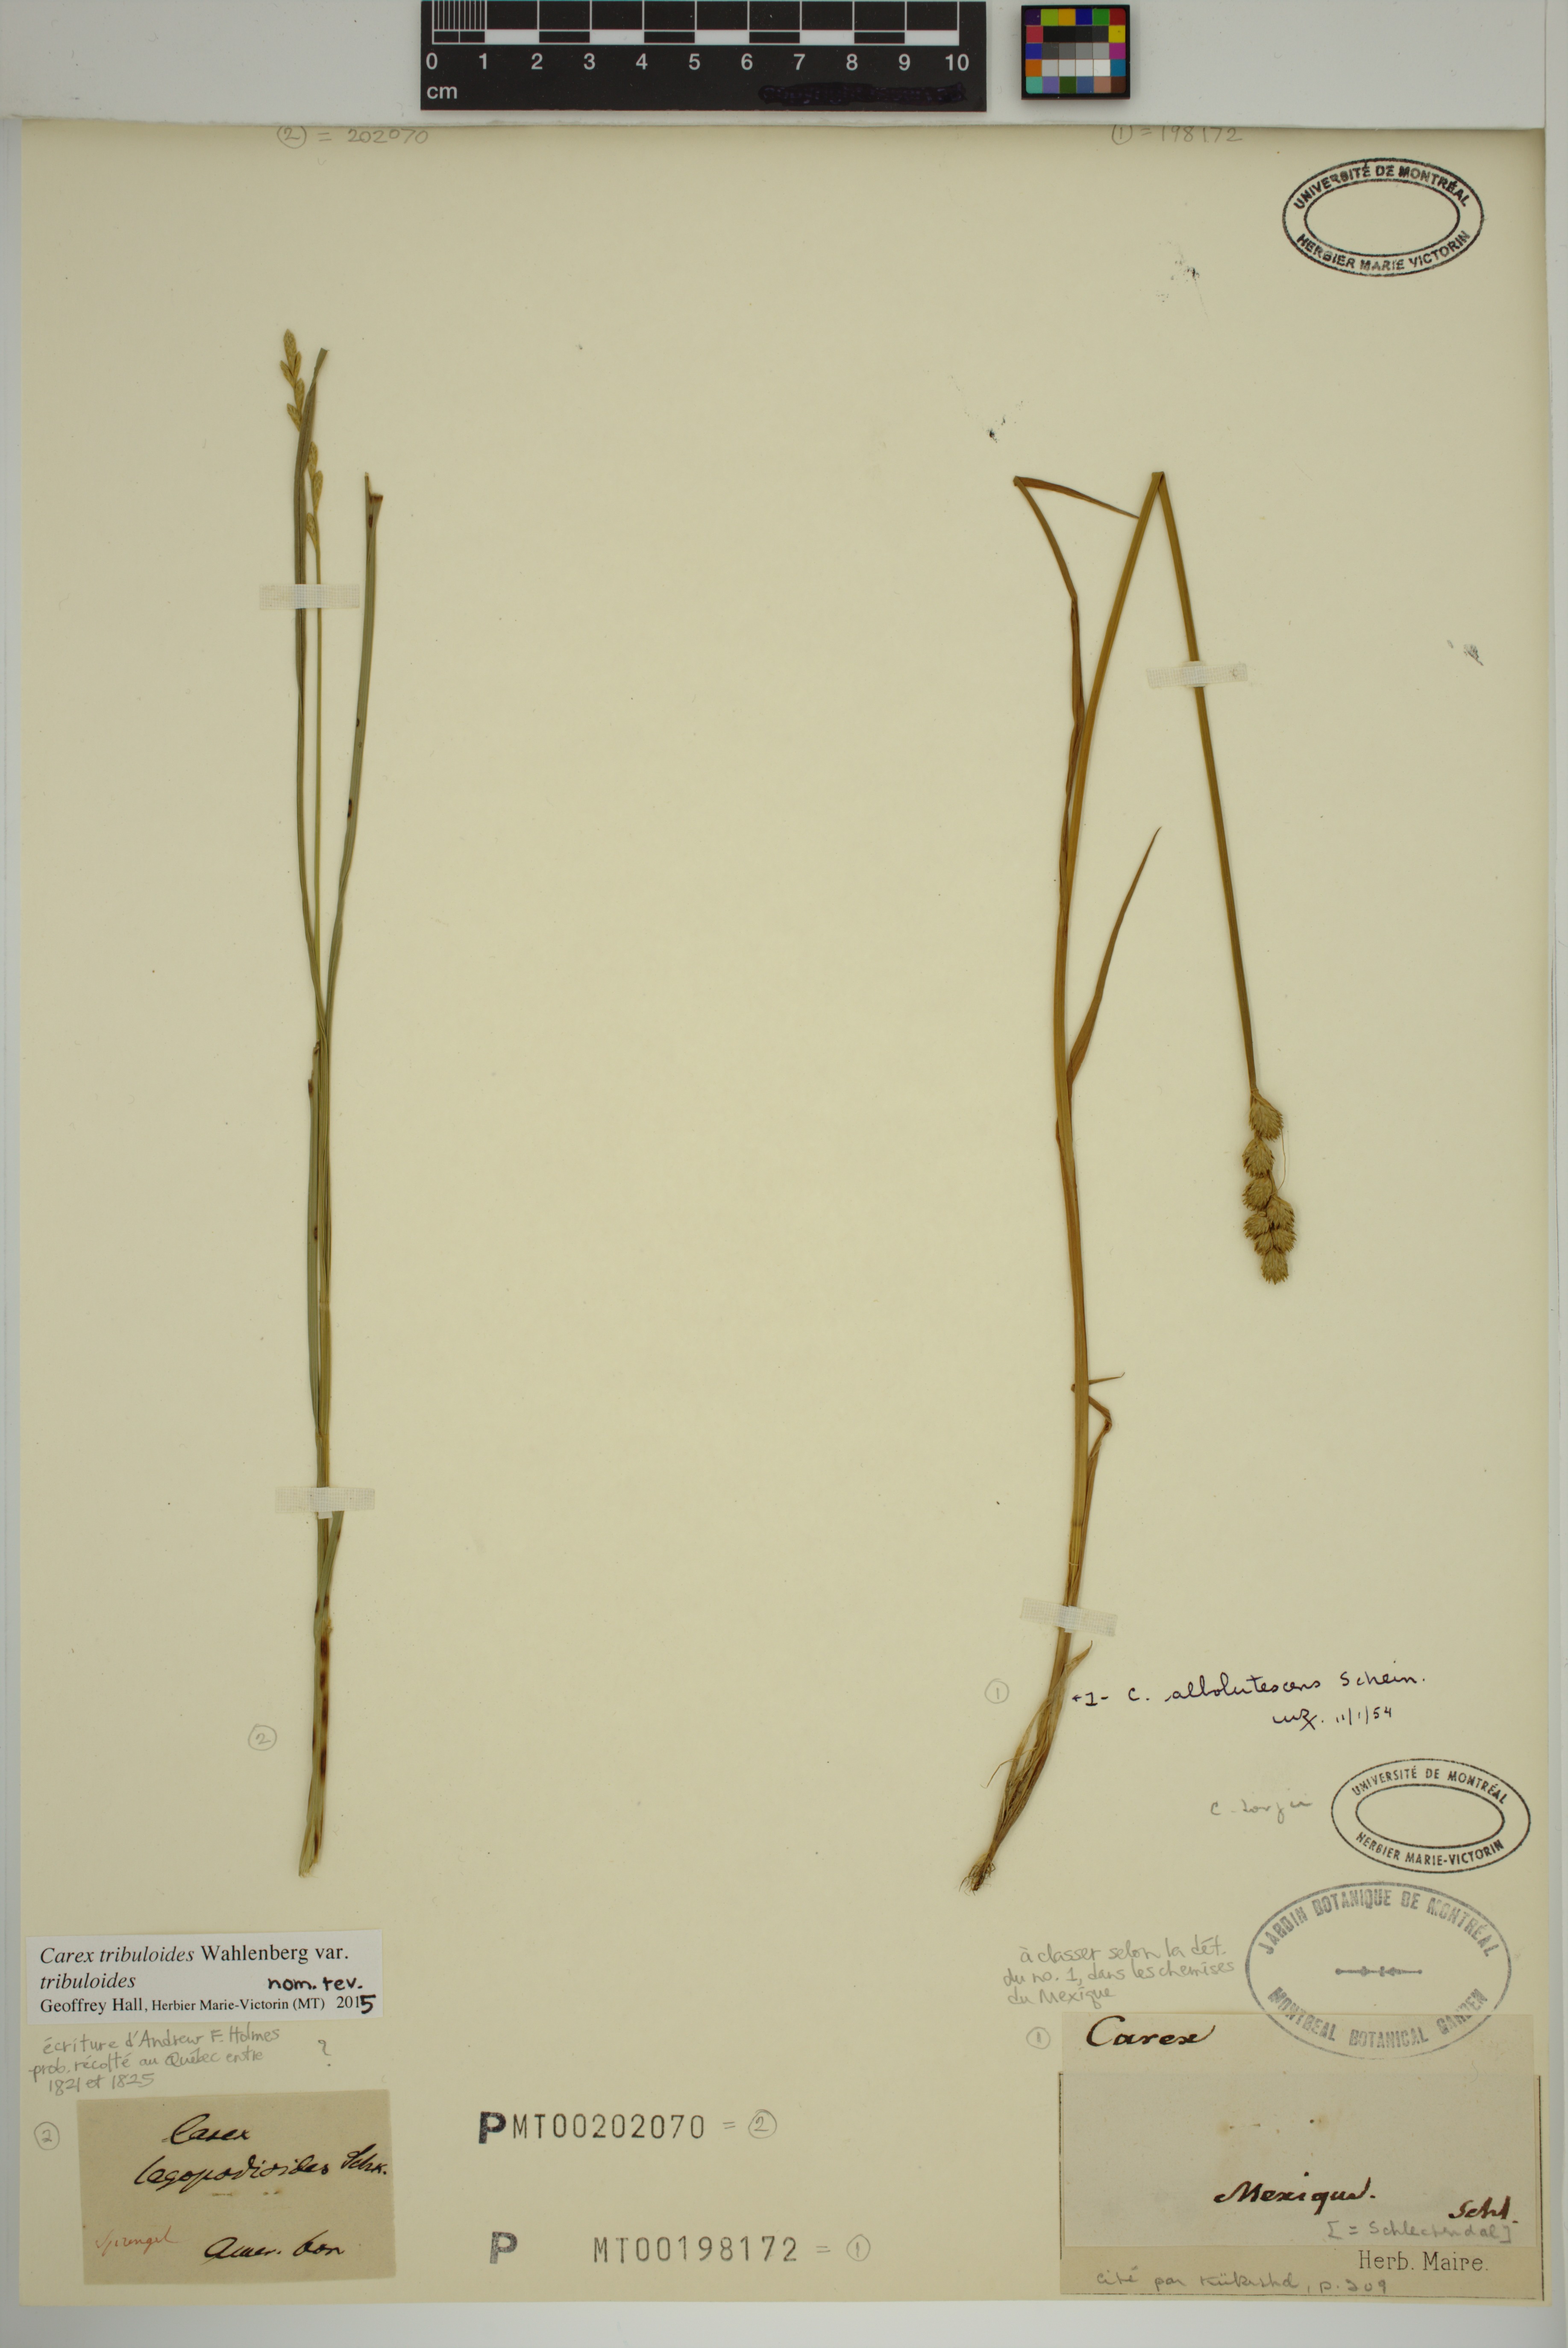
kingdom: Plantae
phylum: Tracheophyta
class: Liliopsida
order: Poales
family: Cyperaceae
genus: Carex
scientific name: Carex albolutescens
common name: Freenish white sedge
